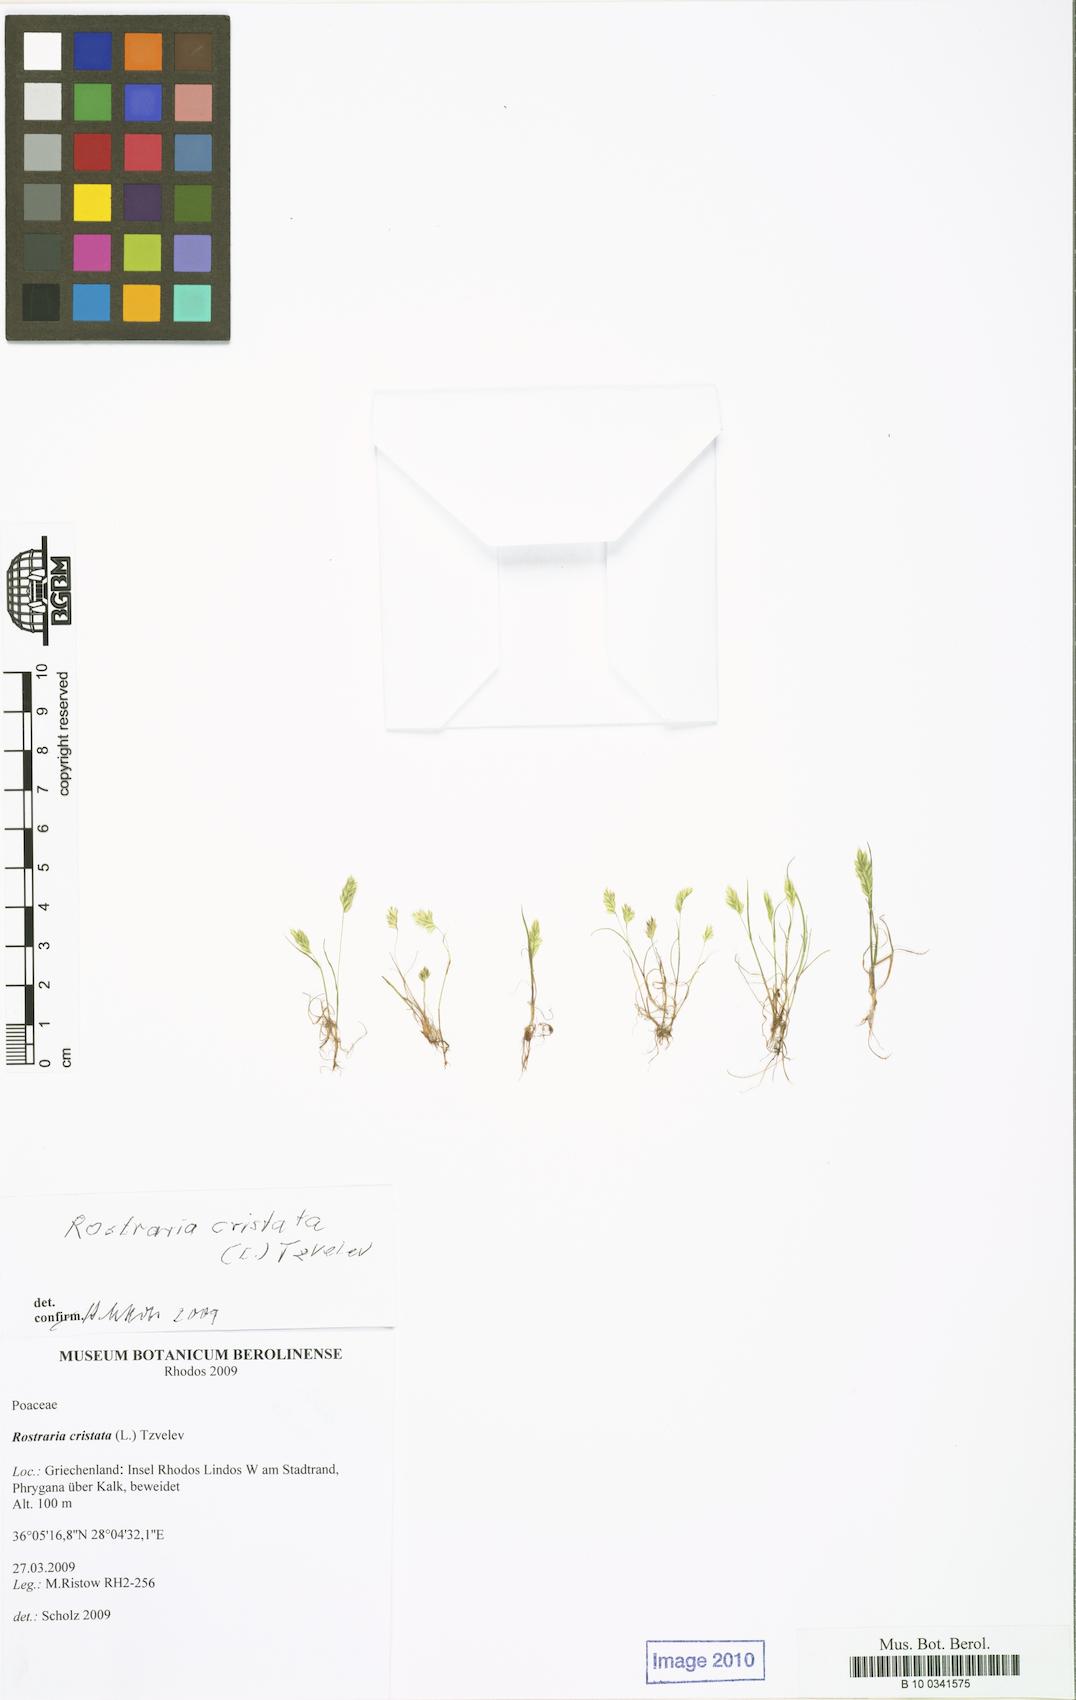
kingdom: Plantae
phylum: Tracheophyta
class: Liliopsida
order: Poales
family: Poaceae
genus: Rostraria
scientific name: Rostraria cristata
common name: Mediterranean hair-grass
